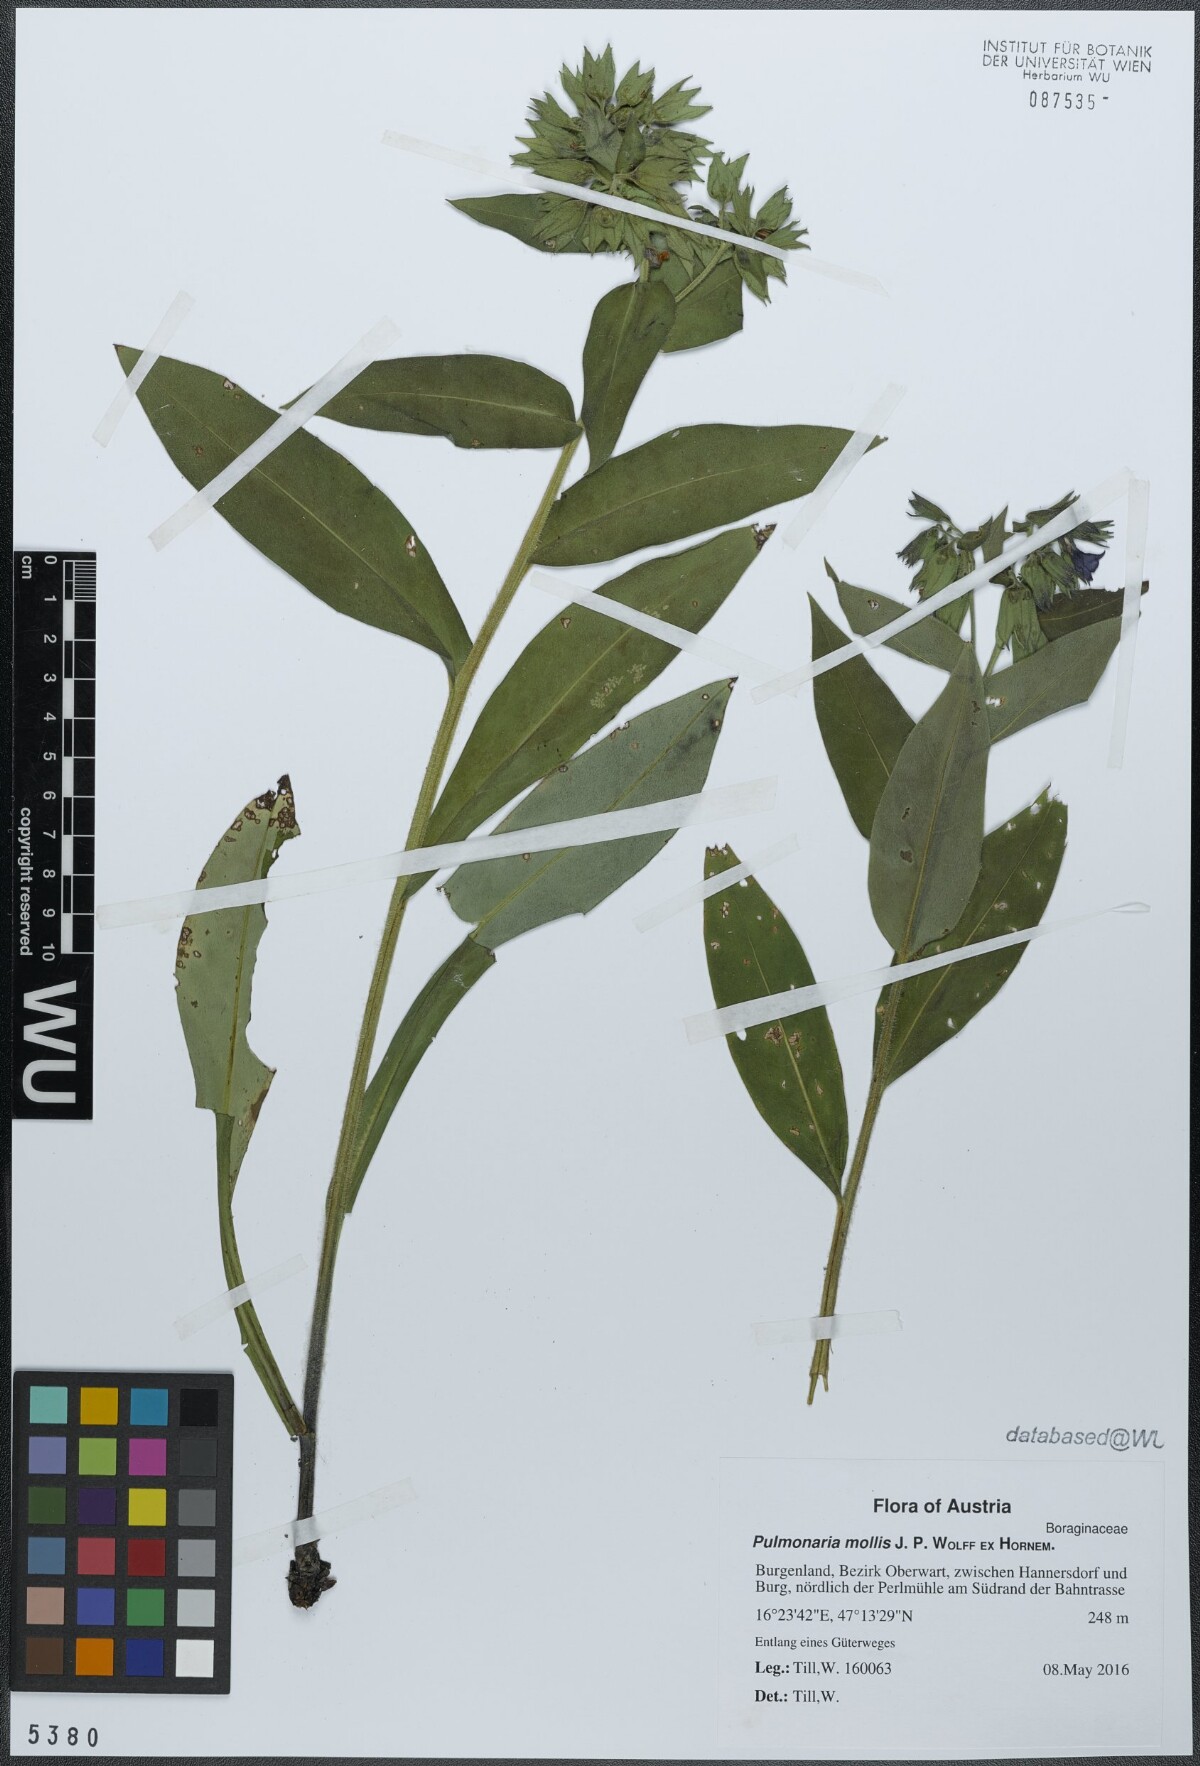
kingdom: Plantae
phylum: Tracheophyta
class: Magnoliopsida
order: Boraginales
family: Boraginaceae
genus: Pulmonaria
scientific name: Pulmonaria mollis
